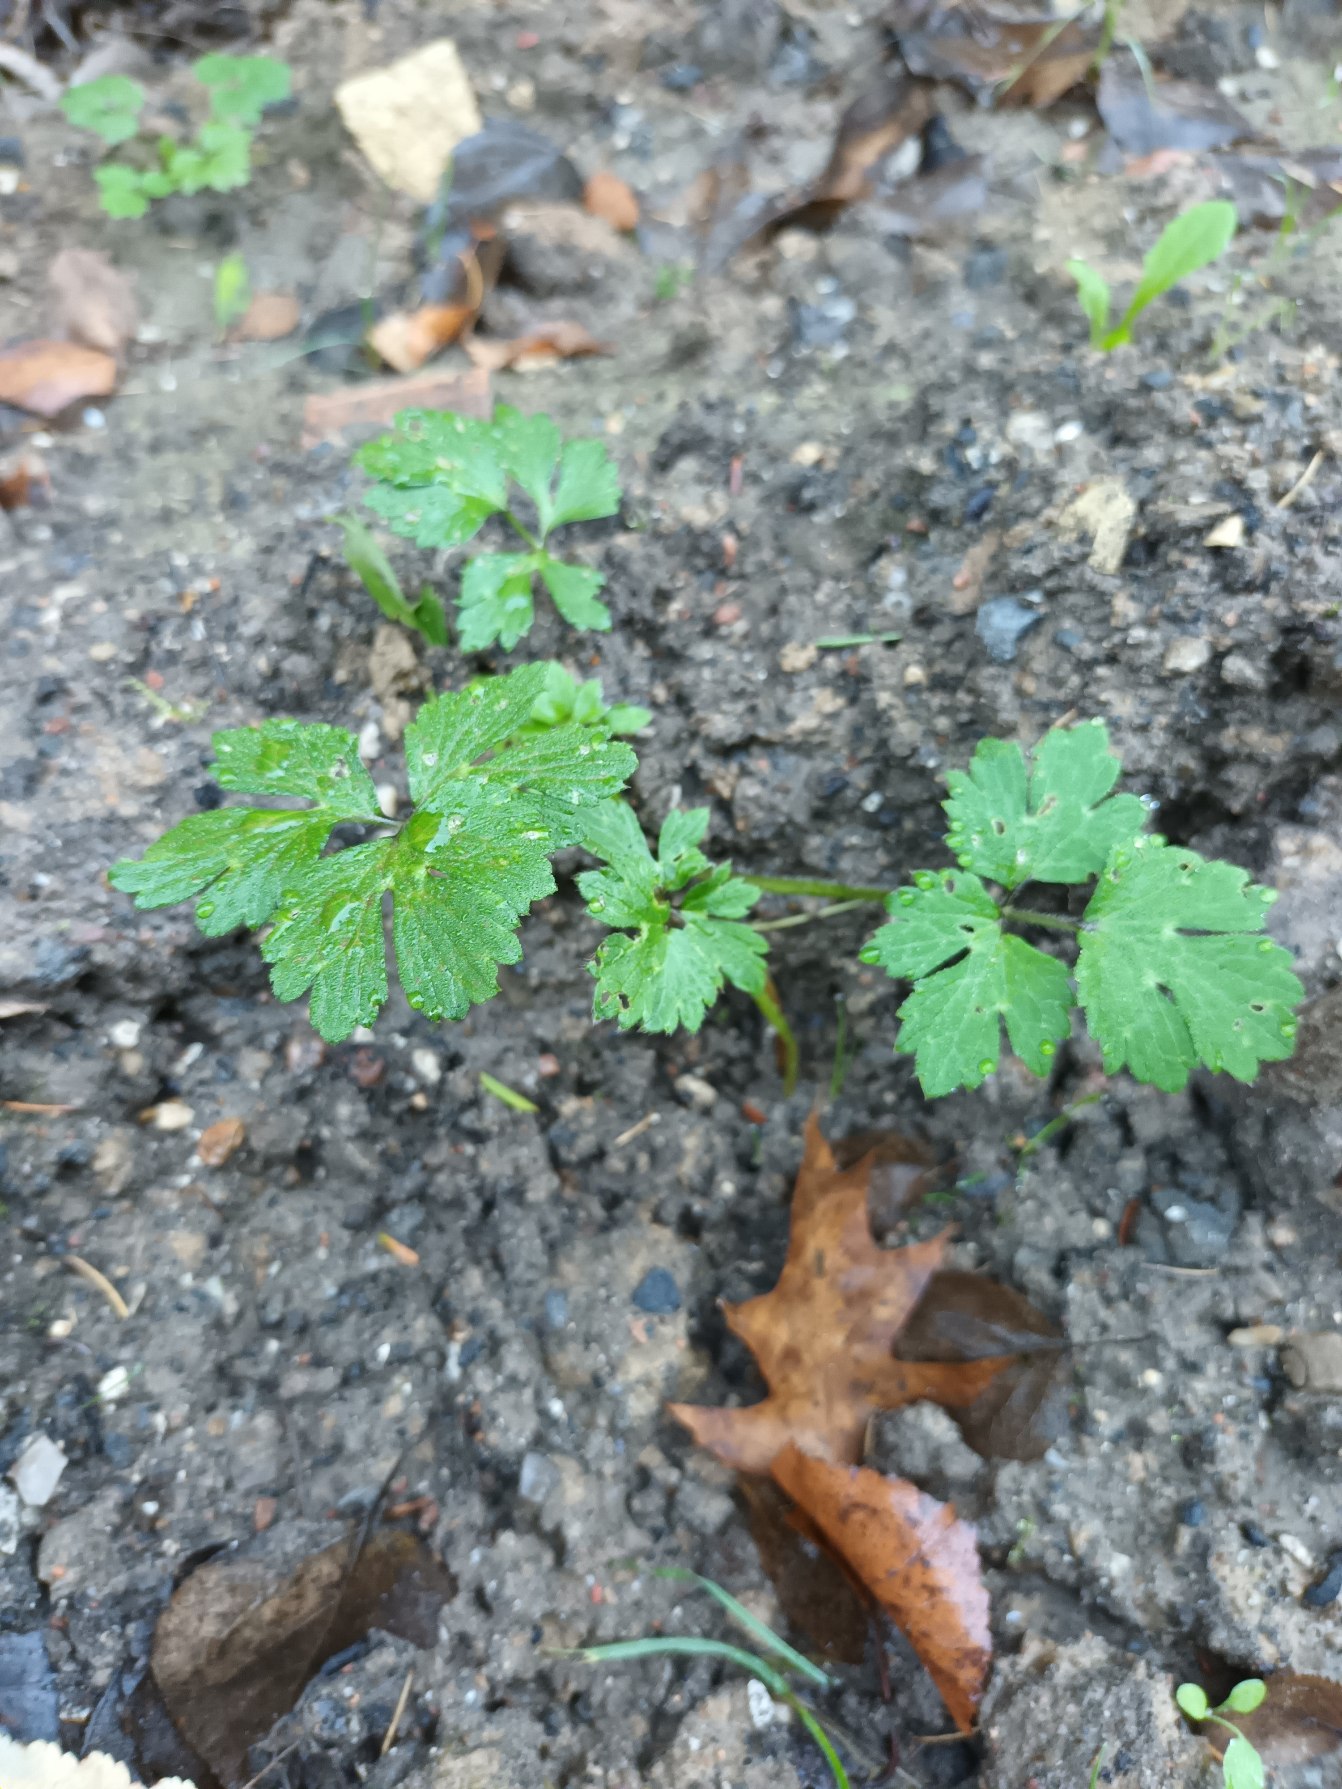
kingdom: Plantae
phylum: Tracheophyta
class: Magnoliopsida
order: Ranunculales
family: Ranunculaceae
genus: Ranunculus
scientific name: Ranunculus repens
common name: Lav ranunkel
